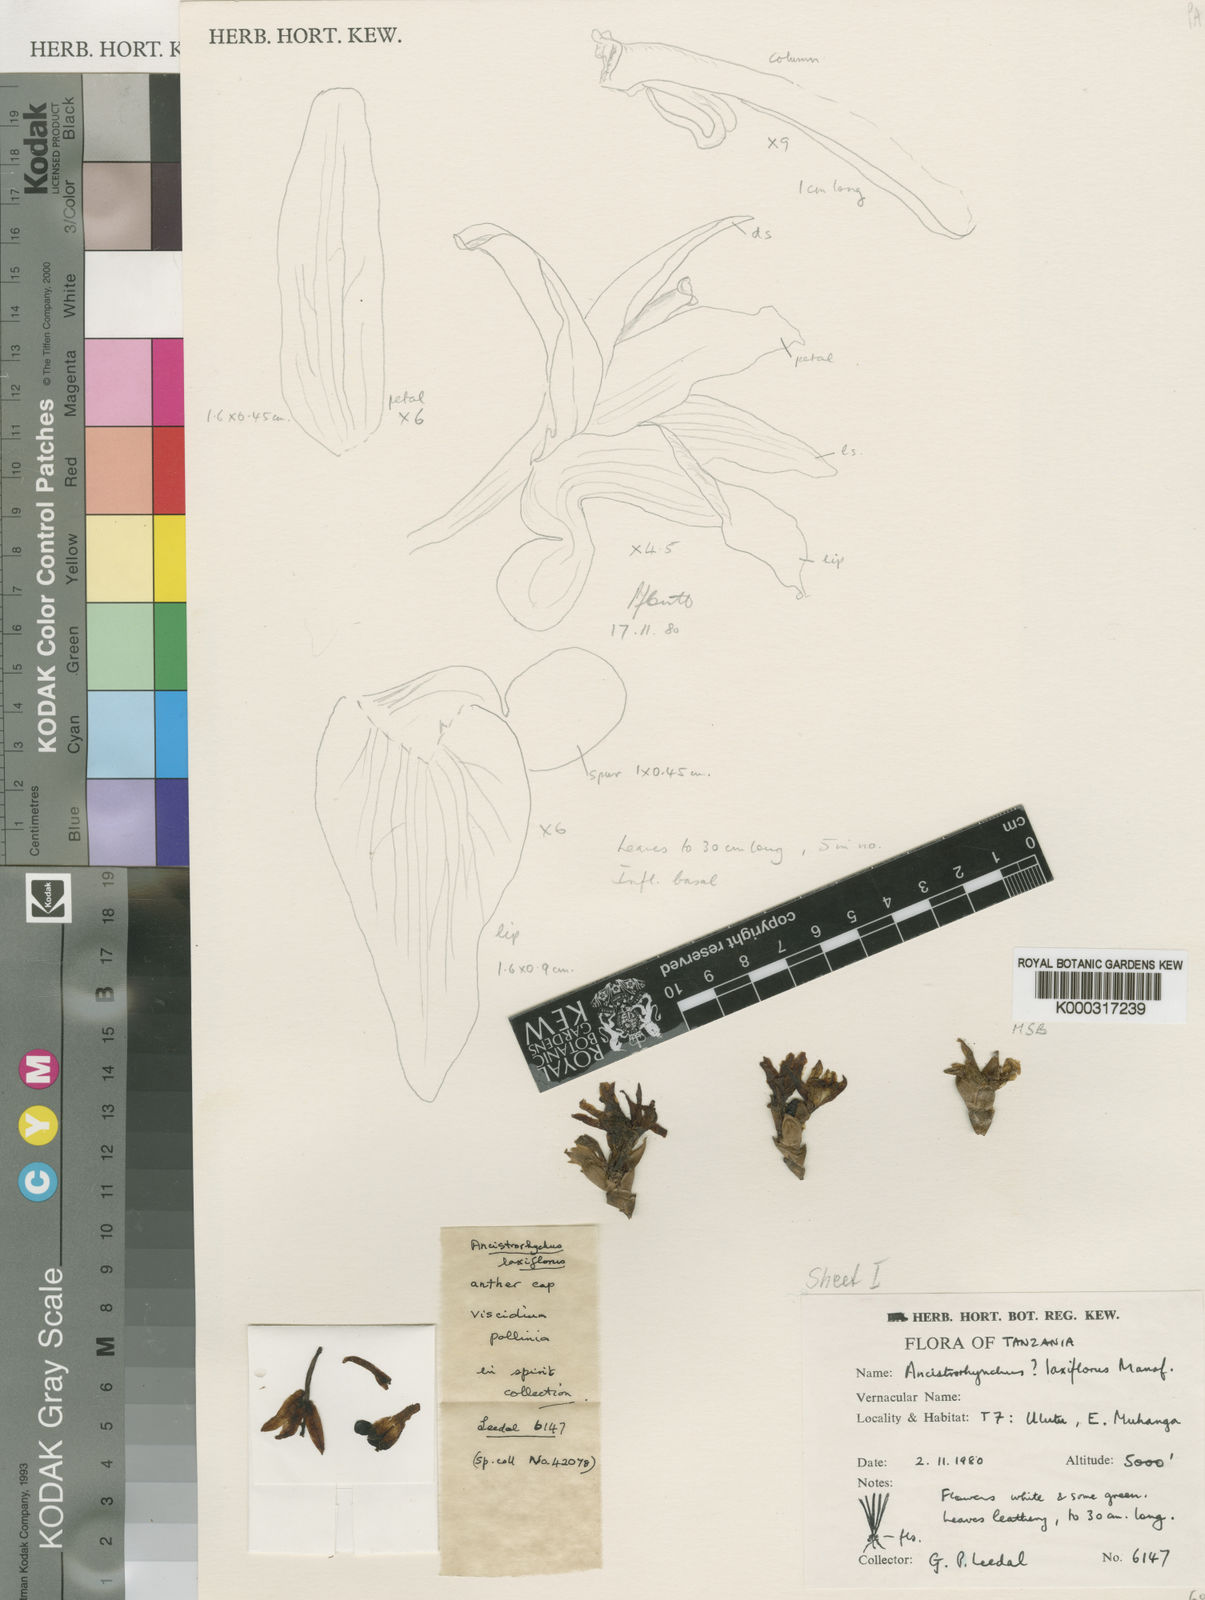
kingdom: Plantae
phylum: Tracheophyta
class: Liliopsida
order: Asparagales
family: Orchidaceae
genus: Ancistrorhynchus
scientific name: Ancistrorhynchus laxiflorus
